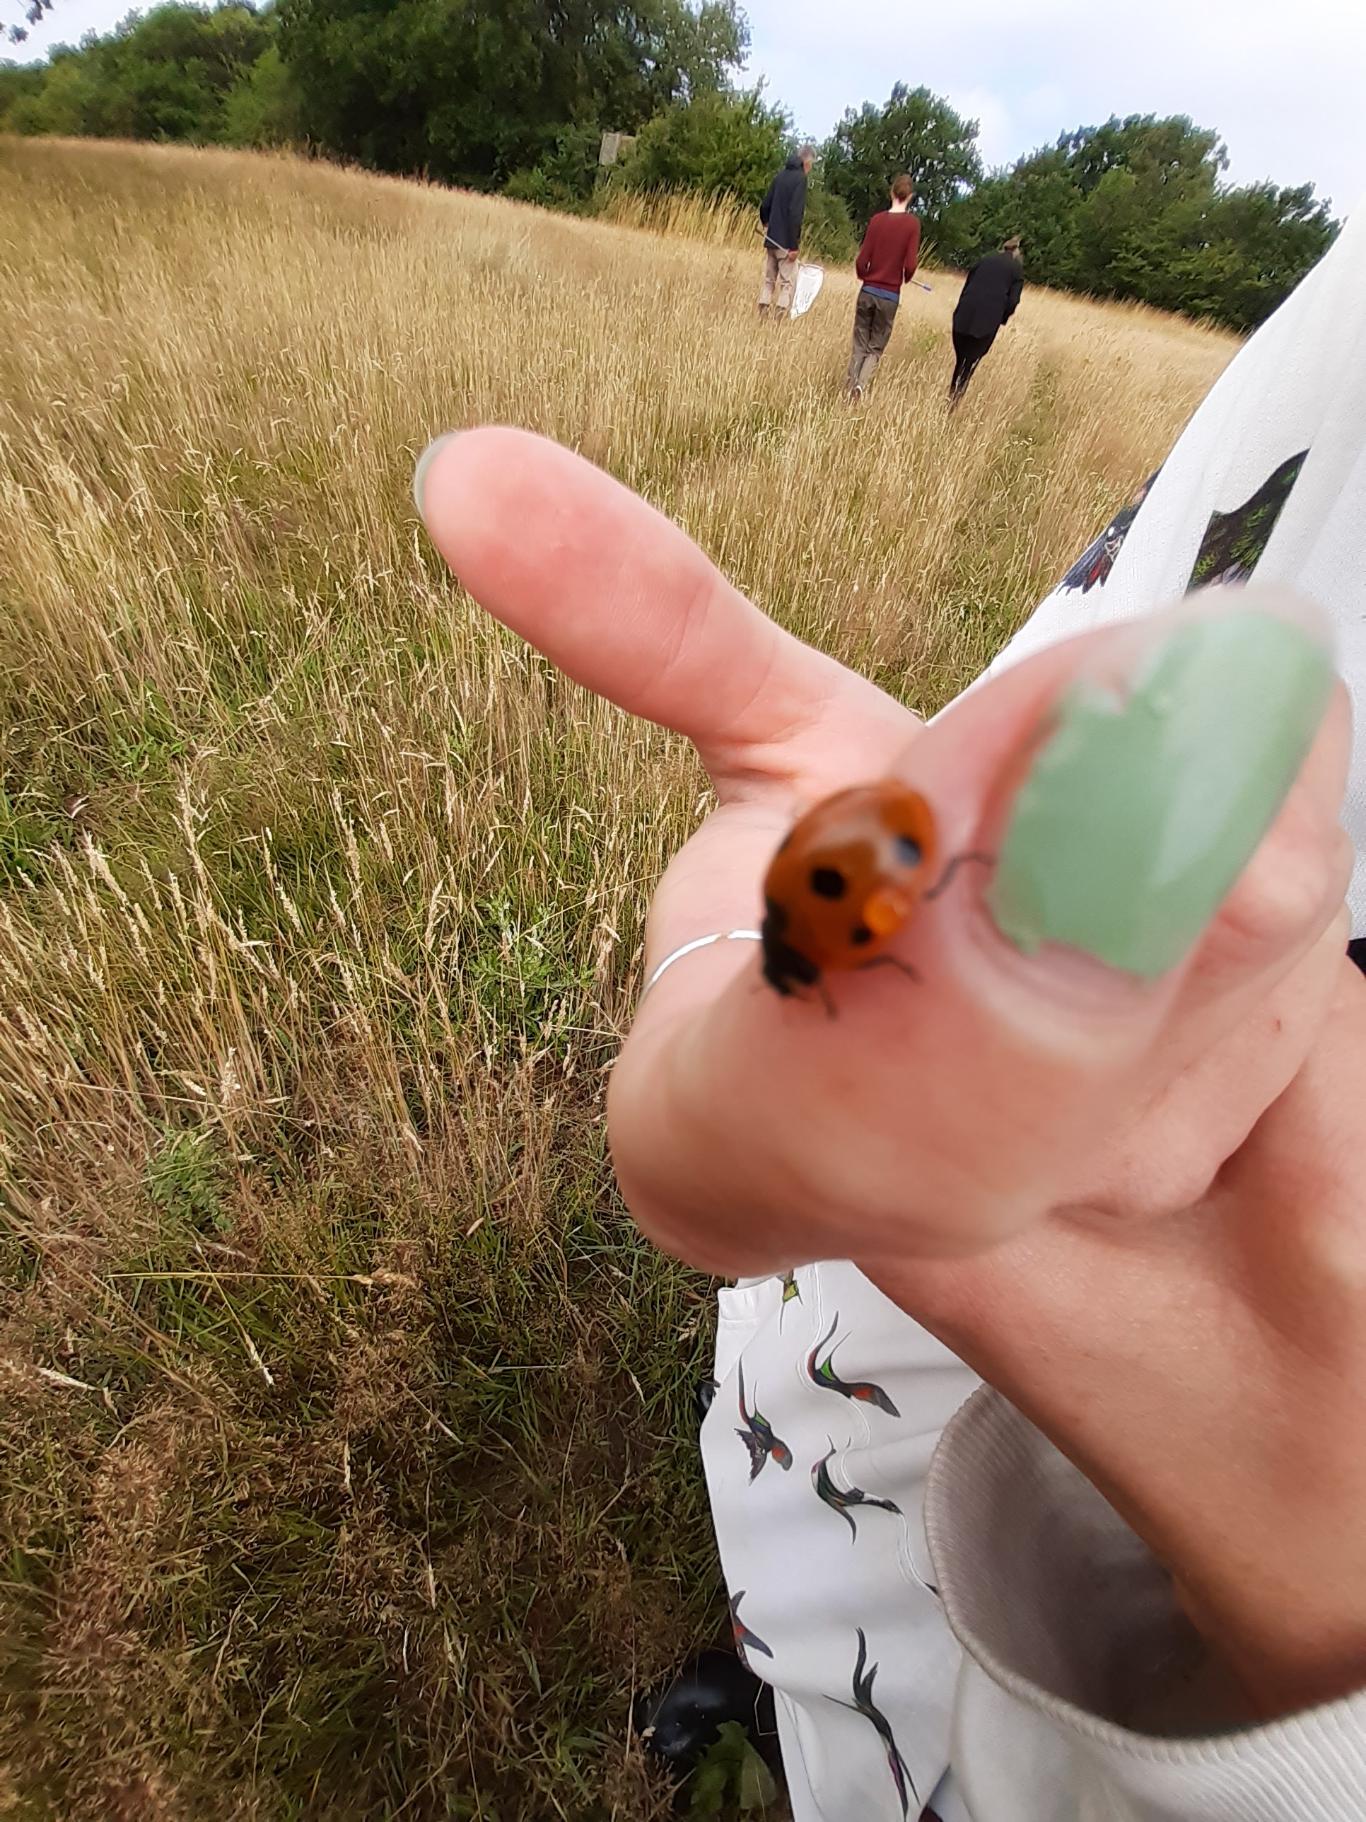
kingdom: Animalia
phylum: Arthropoda
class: Insecta
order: Coleoptera
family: Coccinellidae
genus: Coccinella
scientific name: Coccinella septempunctata
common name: Syvplettet mariehøne
